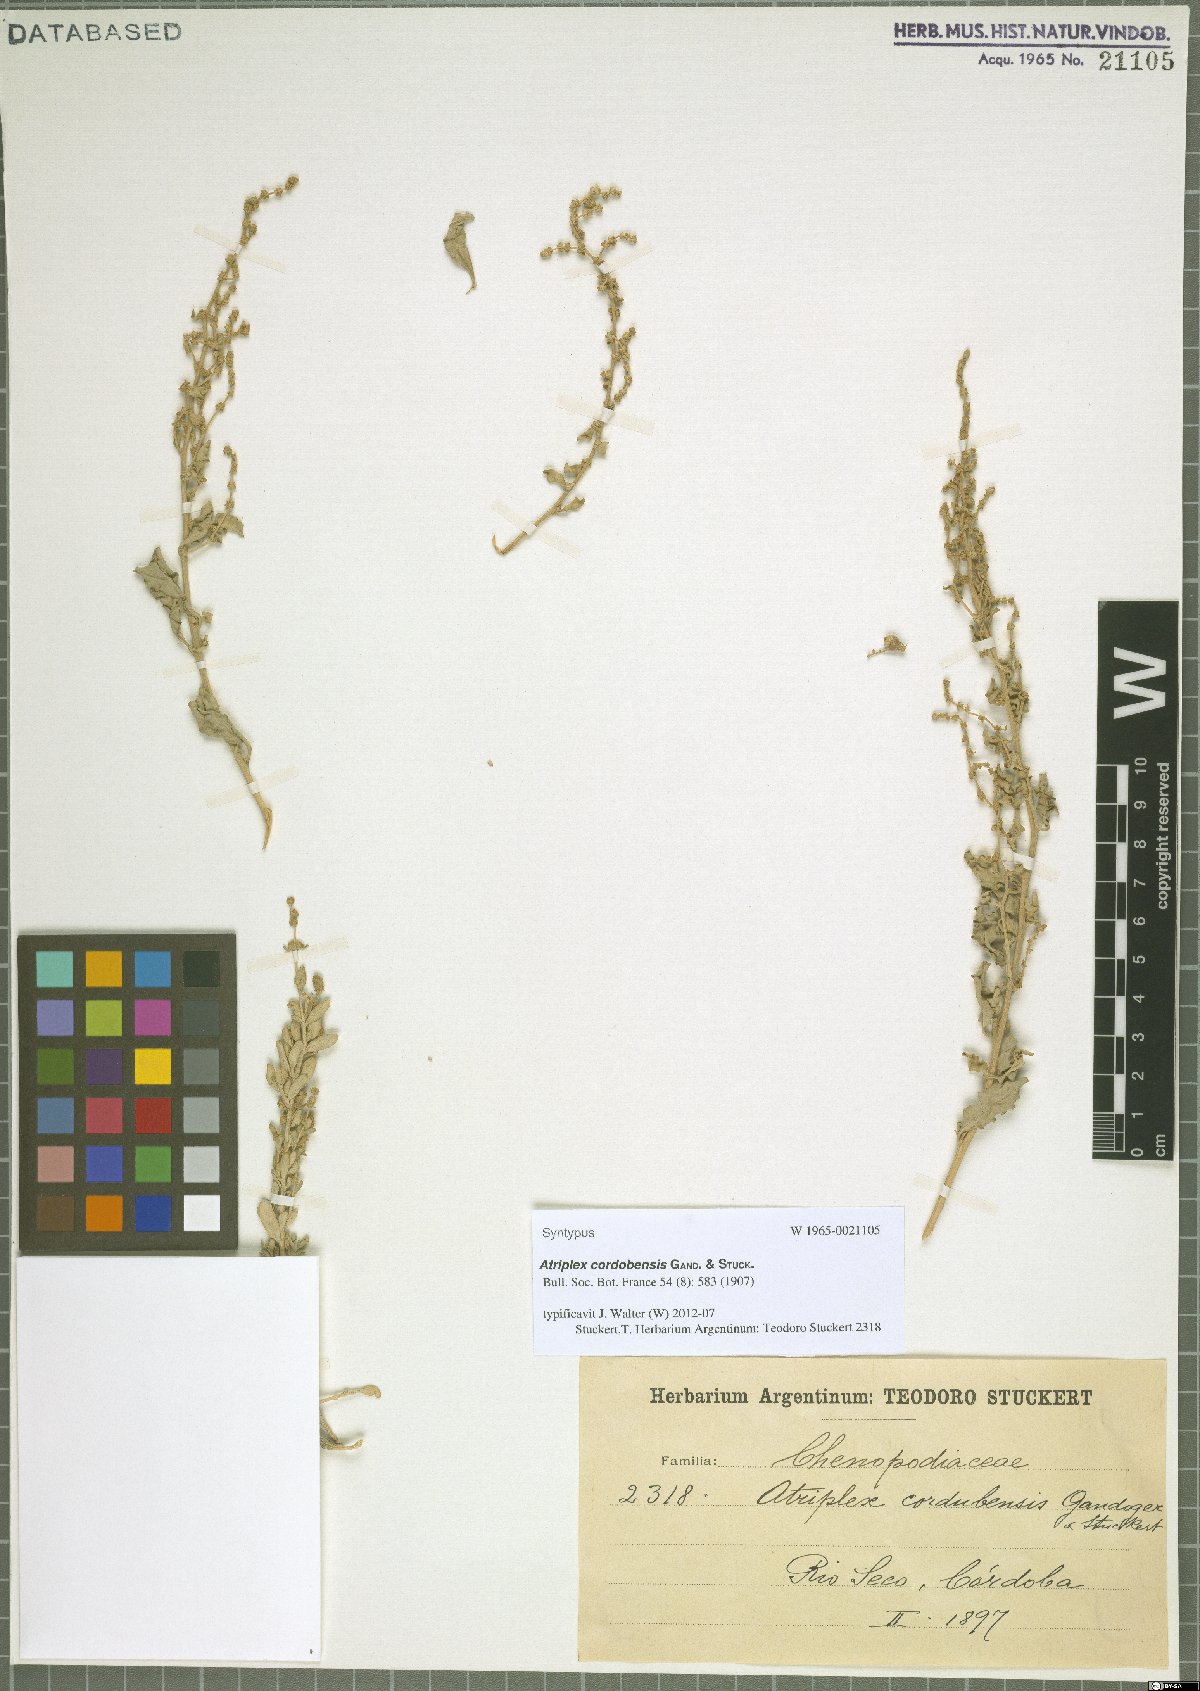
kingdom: Plantae
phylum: Tracheophyta
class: Magnoliopsida
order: Caryophyllales
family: Amaranthaceae
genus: Atriplex
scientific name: Atriplex cordobensis
